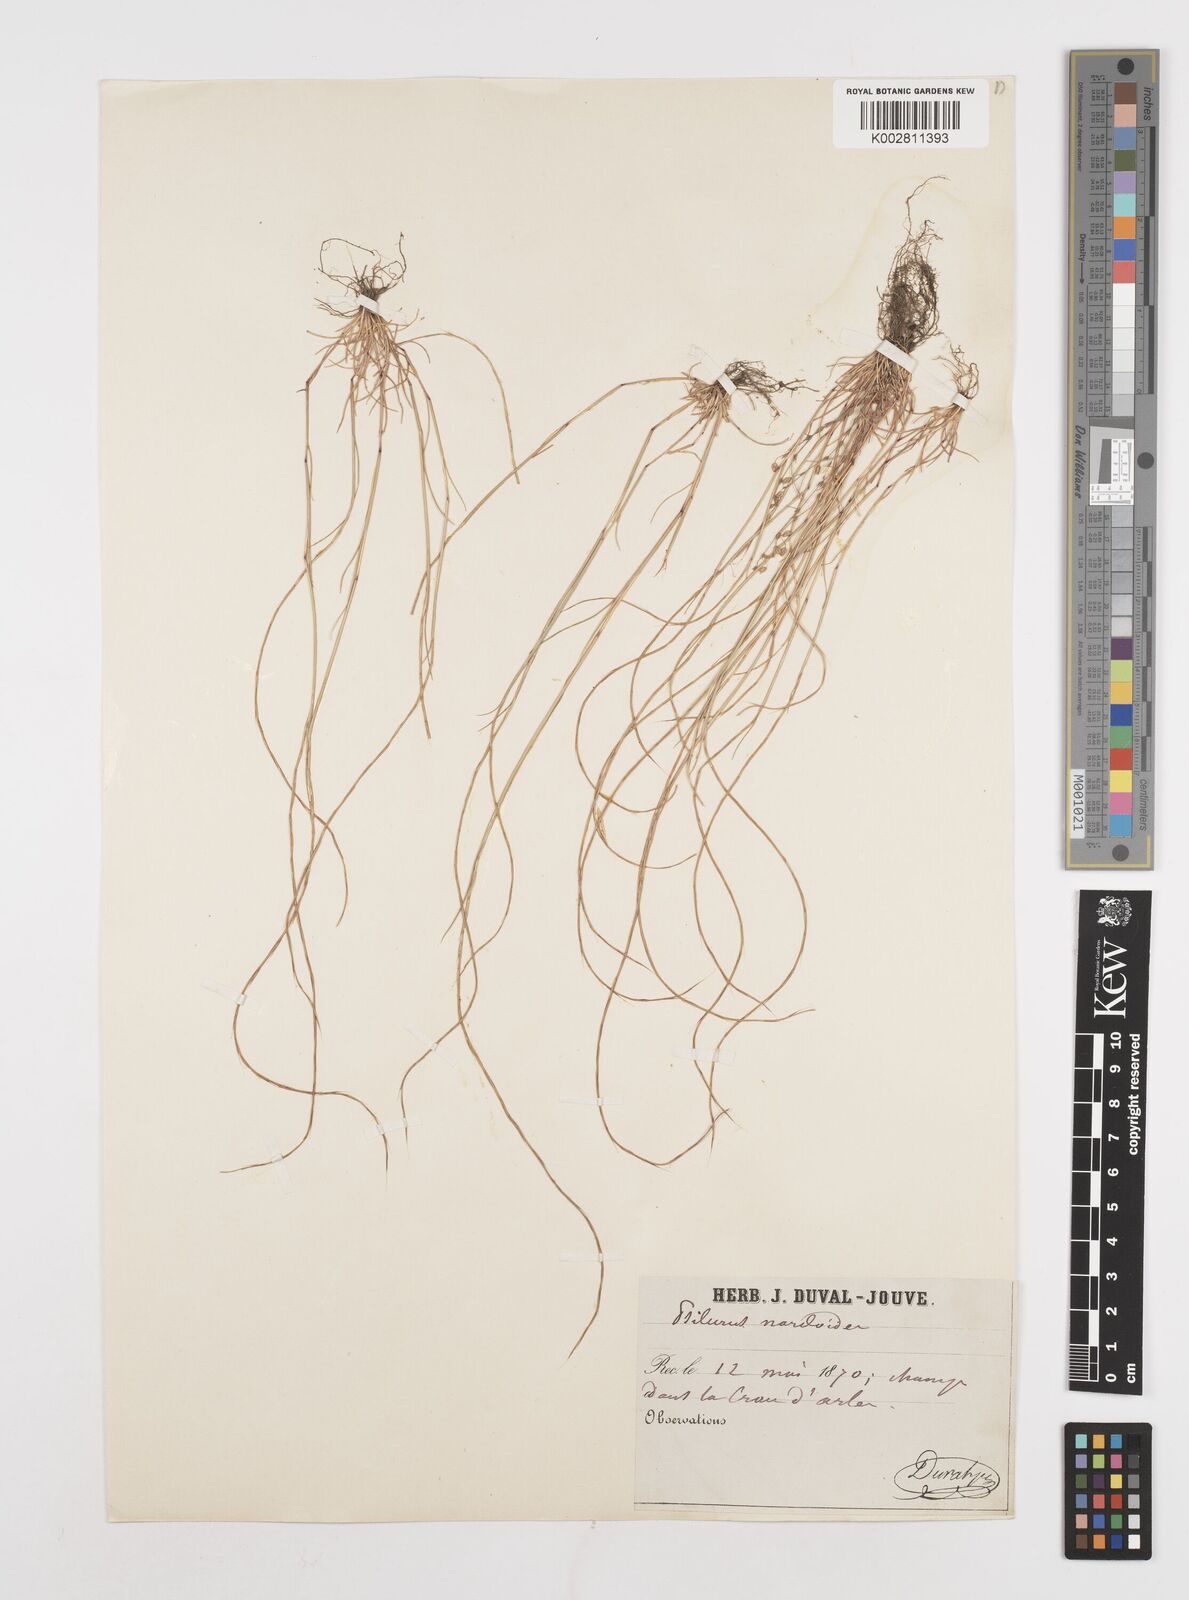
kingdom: Plantae
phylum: Tracheophyta
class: Liliopsida
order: Poales
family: Poaceae
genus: Festuca
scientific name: Festuca incurva
